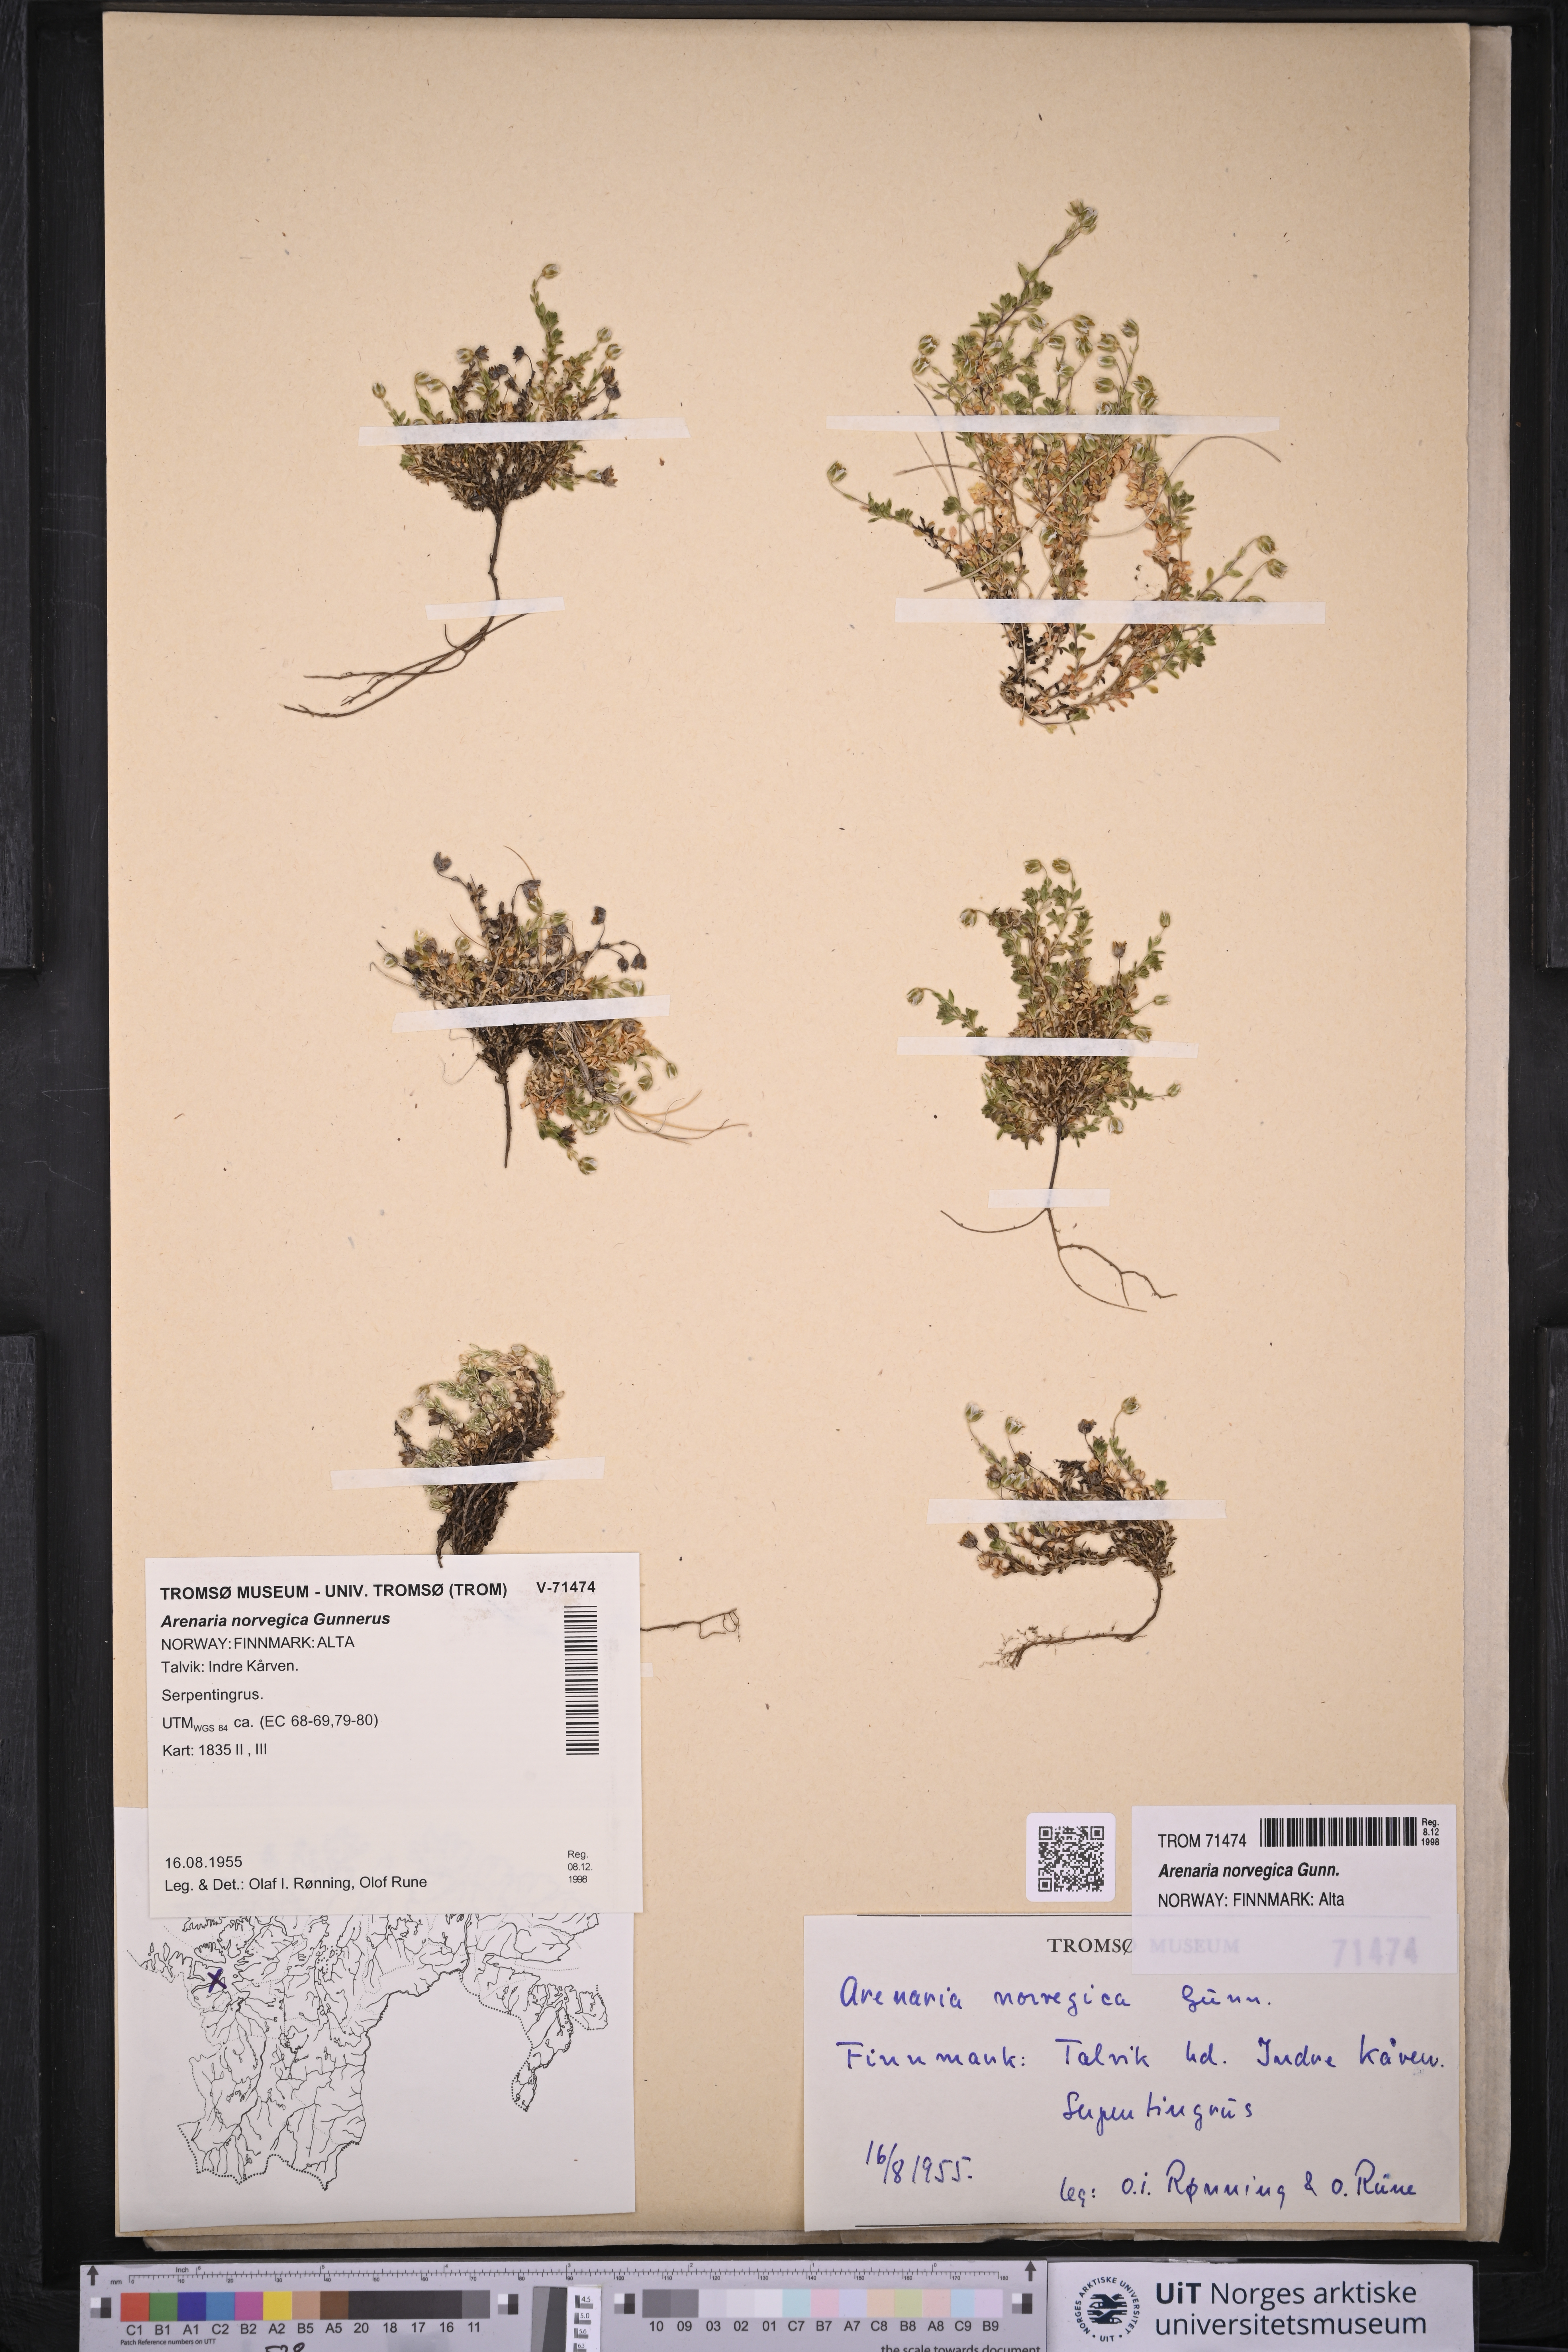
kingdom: Plantae
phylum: Tracheophyta
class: Magnoliopsida
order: Caryophyllales
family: Caryophyllaceae
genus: Arenaria
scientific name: Arenaria norvegica
